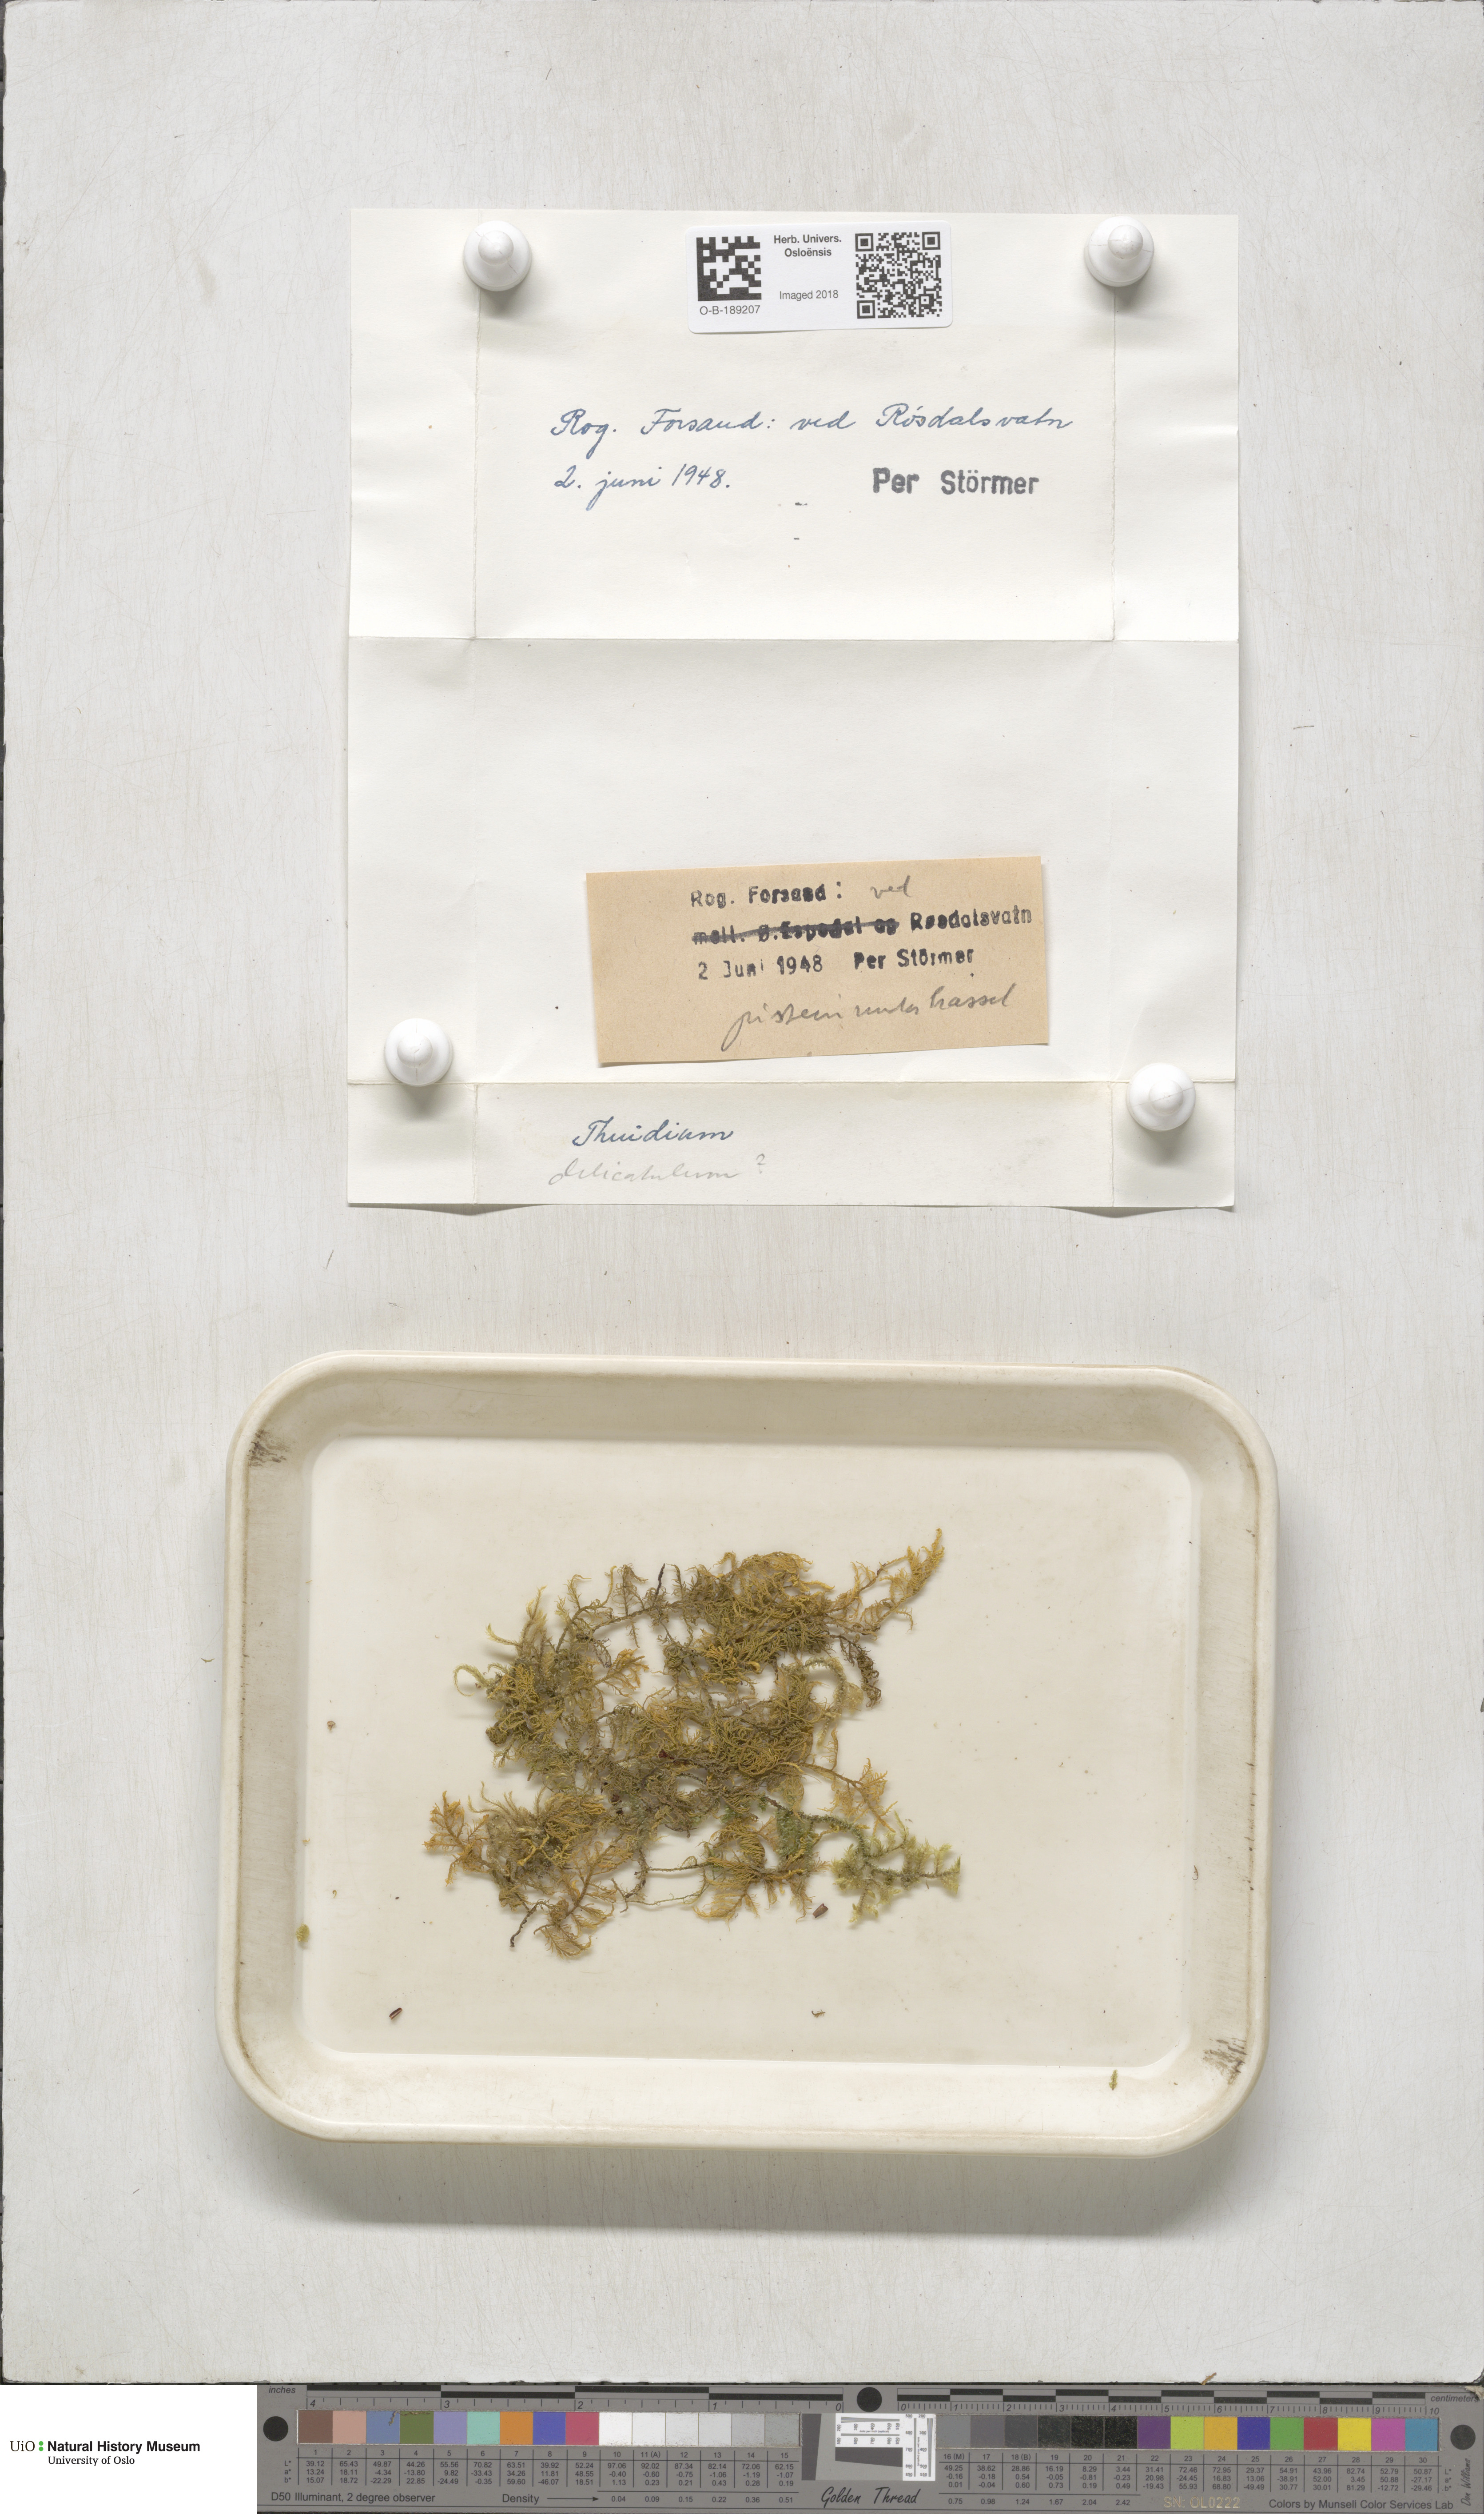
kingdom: Plantae
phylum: Bryophyta
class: Bryopsida
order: Hypnales
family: Thuidiaceae
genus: Thuidium
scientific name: Thuidium delicatulum
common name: Delicate fern moss
